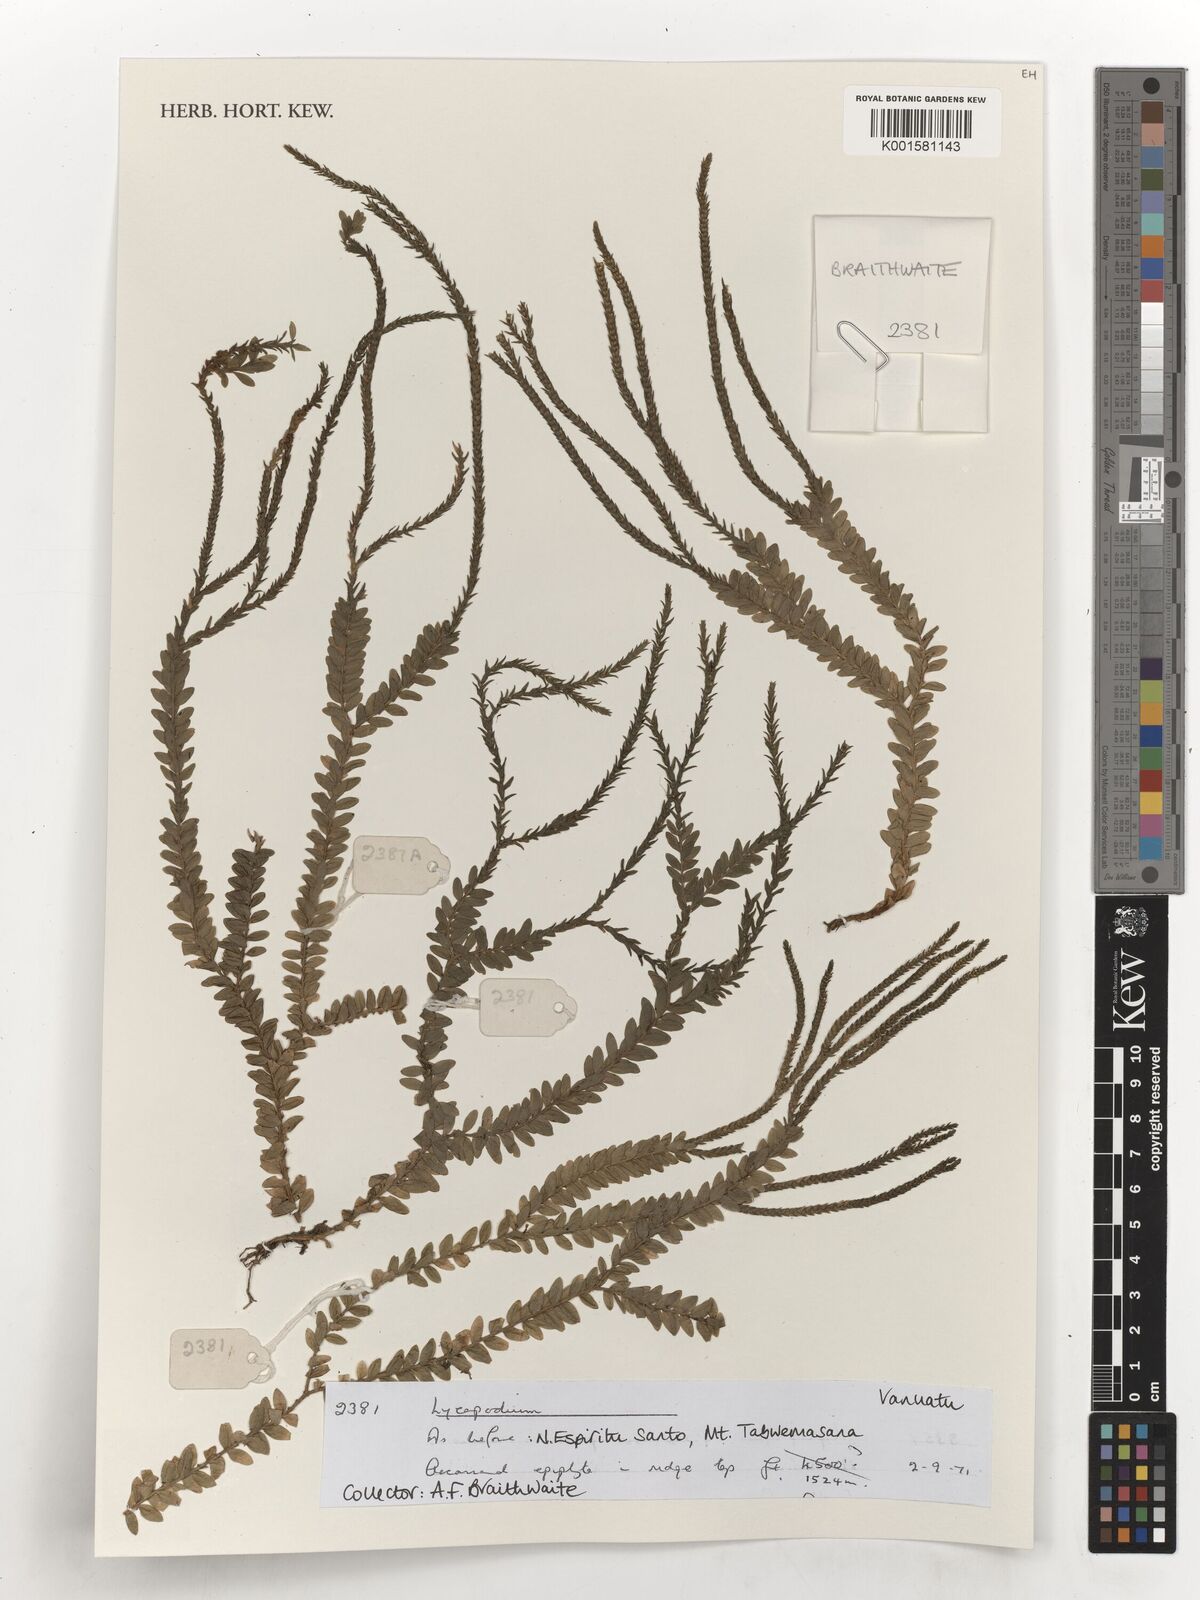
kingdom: Plantae
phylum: Tracheophyta
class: Lycopodiopsida
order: Lycopodiales
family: Lycopodiaceae
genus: Lycopodium
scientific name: Lycopodium
